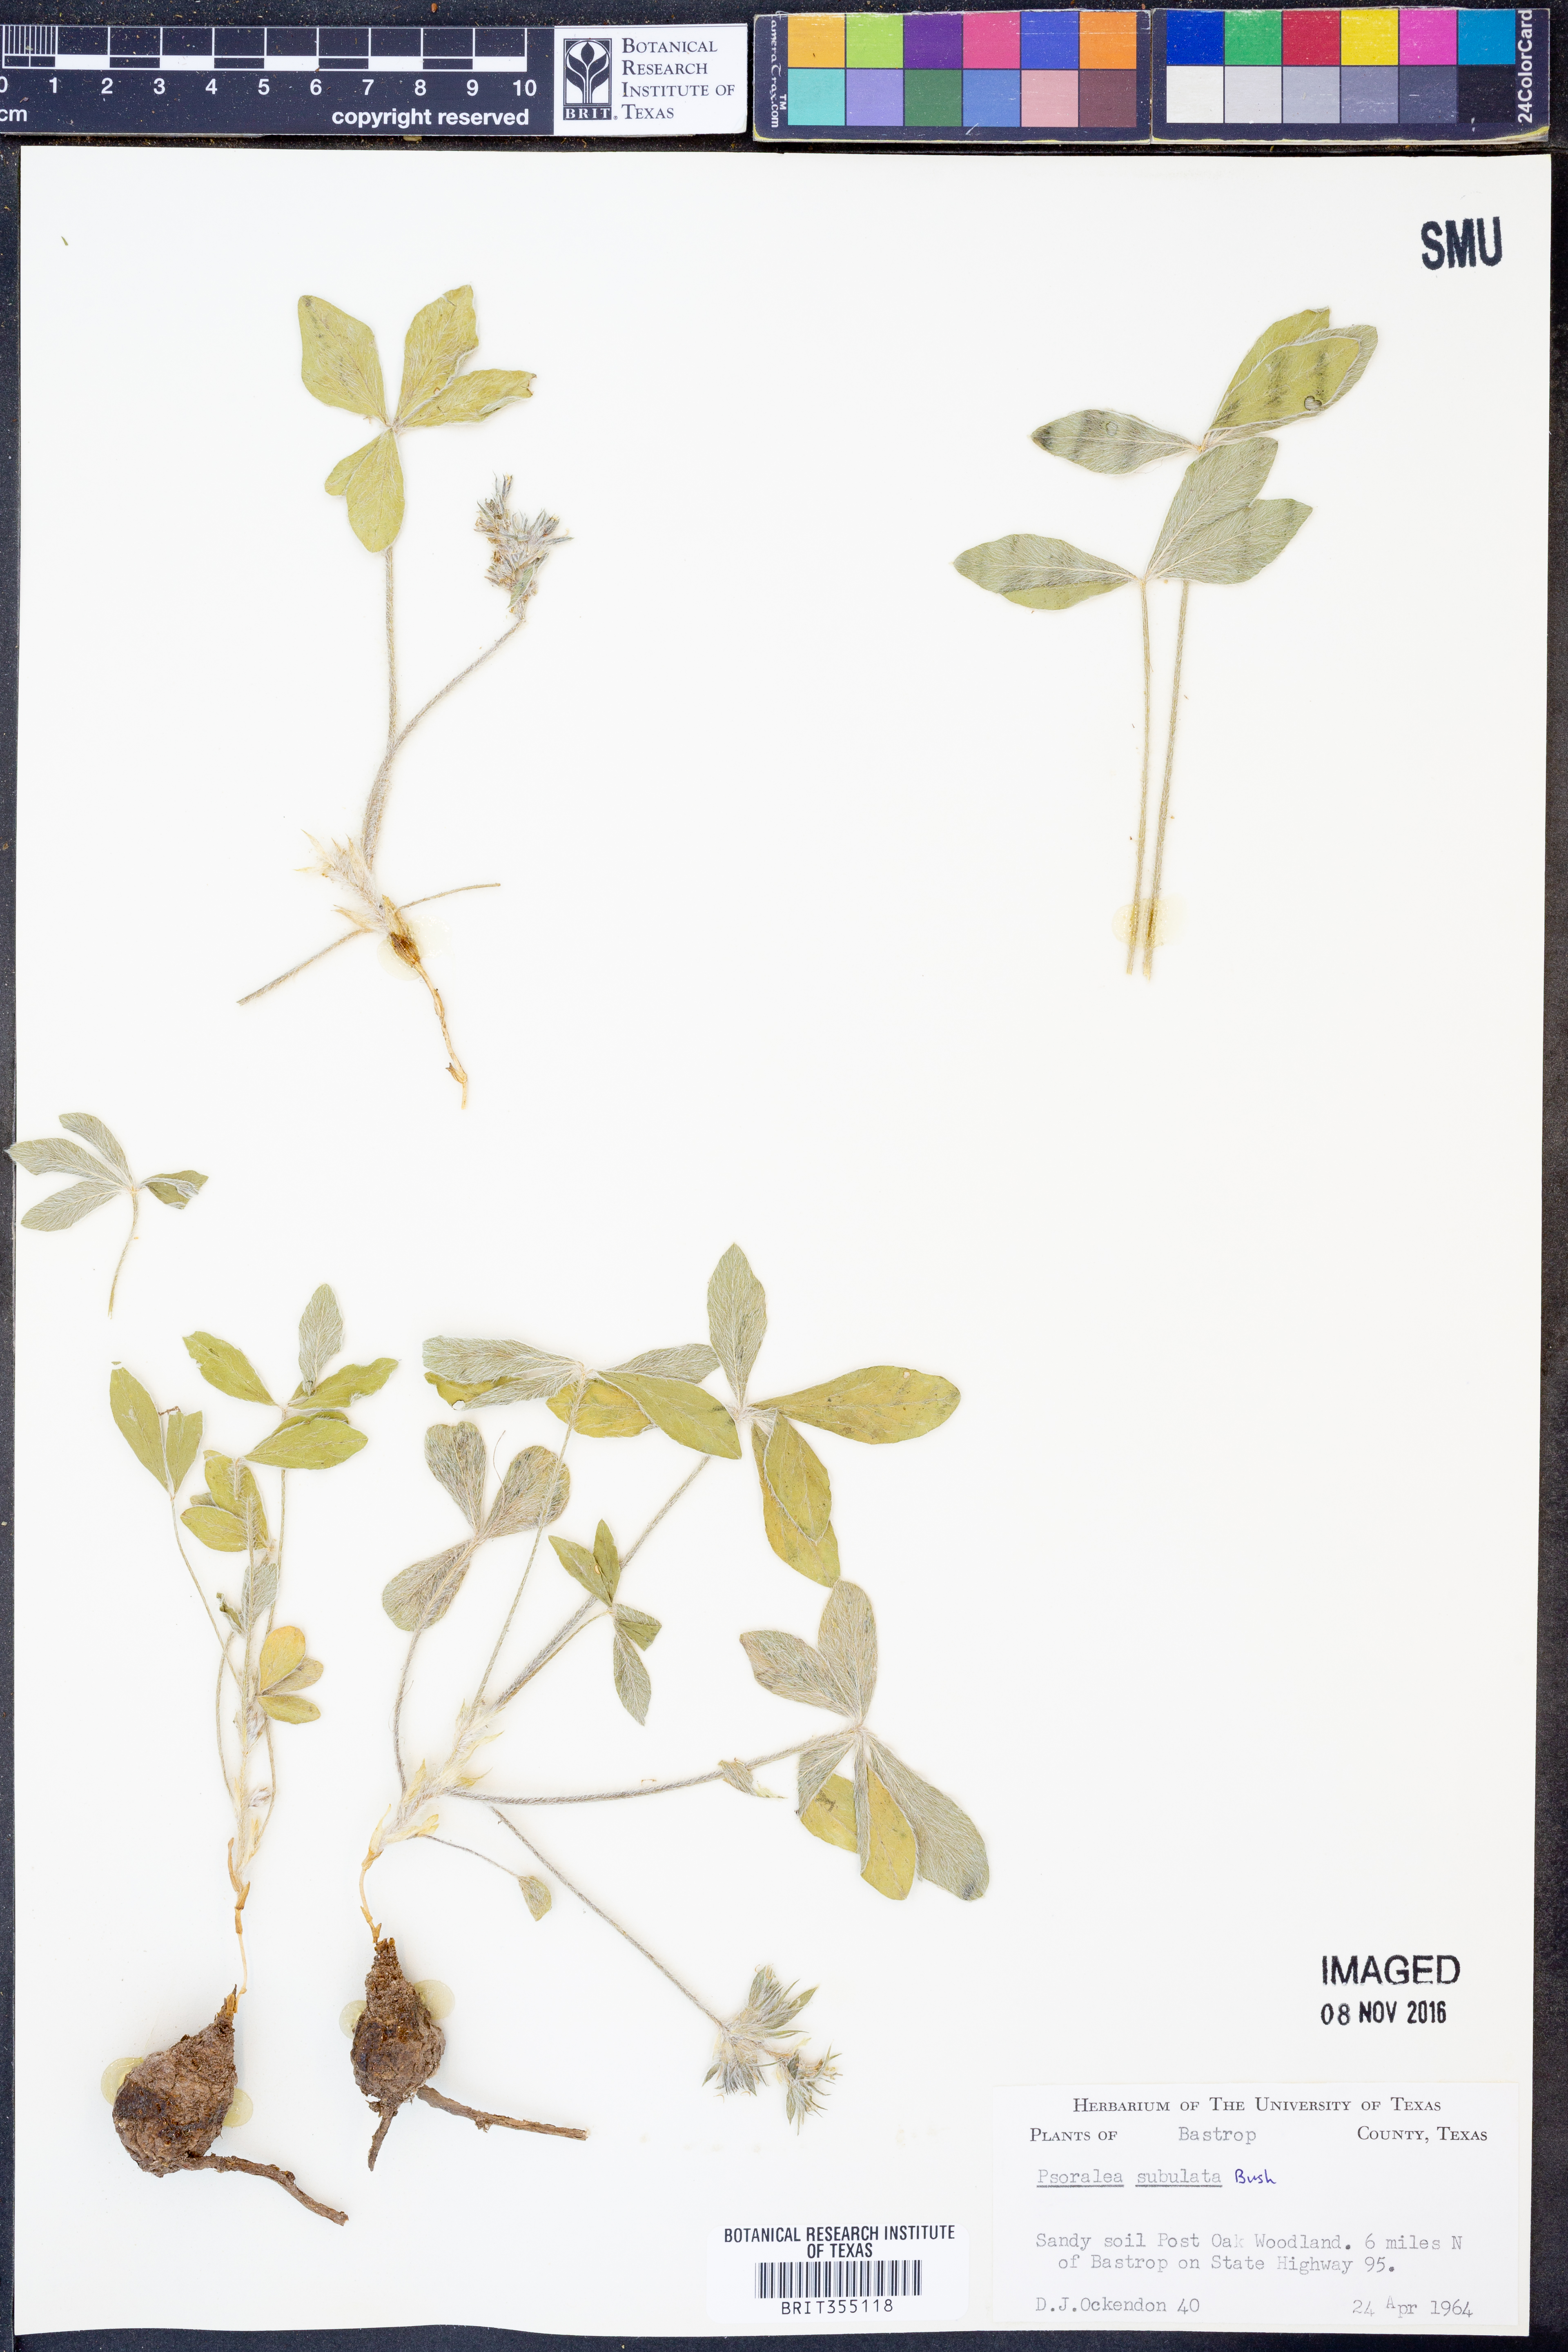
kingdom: Plantae
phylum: Tracheophyta
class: Magnoliopsida
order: Fabales
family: Fabaceae
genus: Pediomelum
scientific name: Pediomelum hypogaeum
